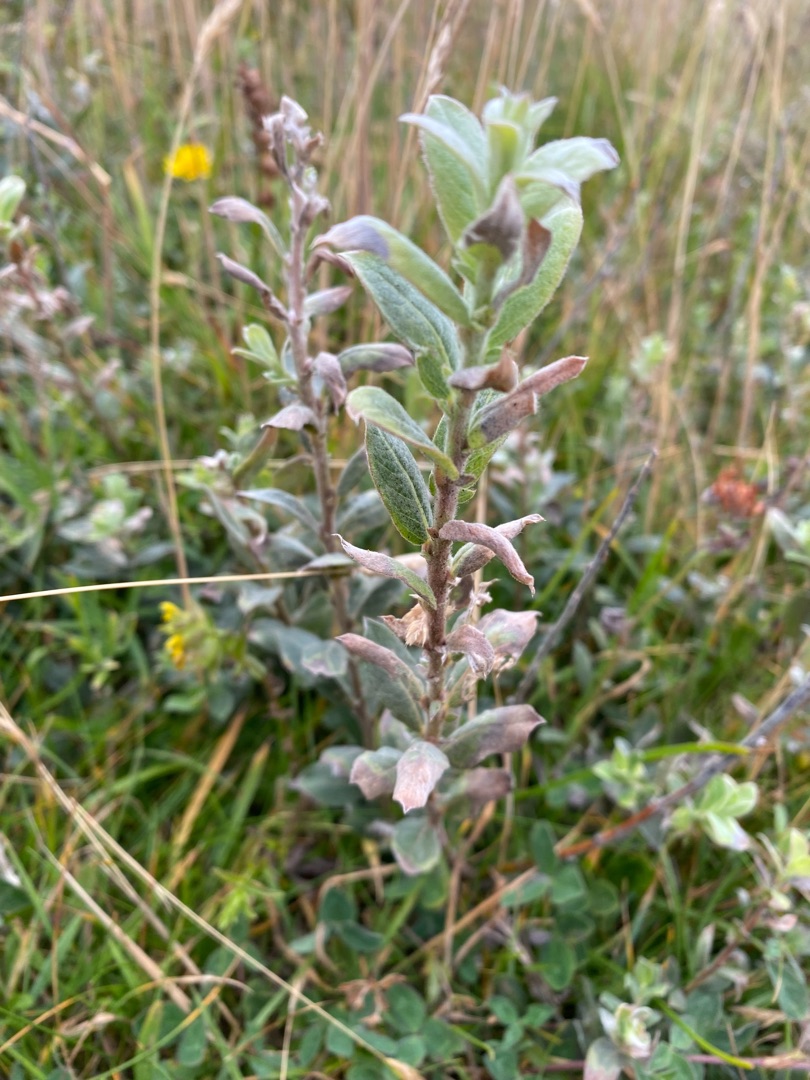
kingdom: Plantae
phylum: Tracheophyta
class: Magnoliopsida
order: Malpighiales
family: Salicaceae
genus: Salix
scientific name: Salix repens
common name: Krybende pil
